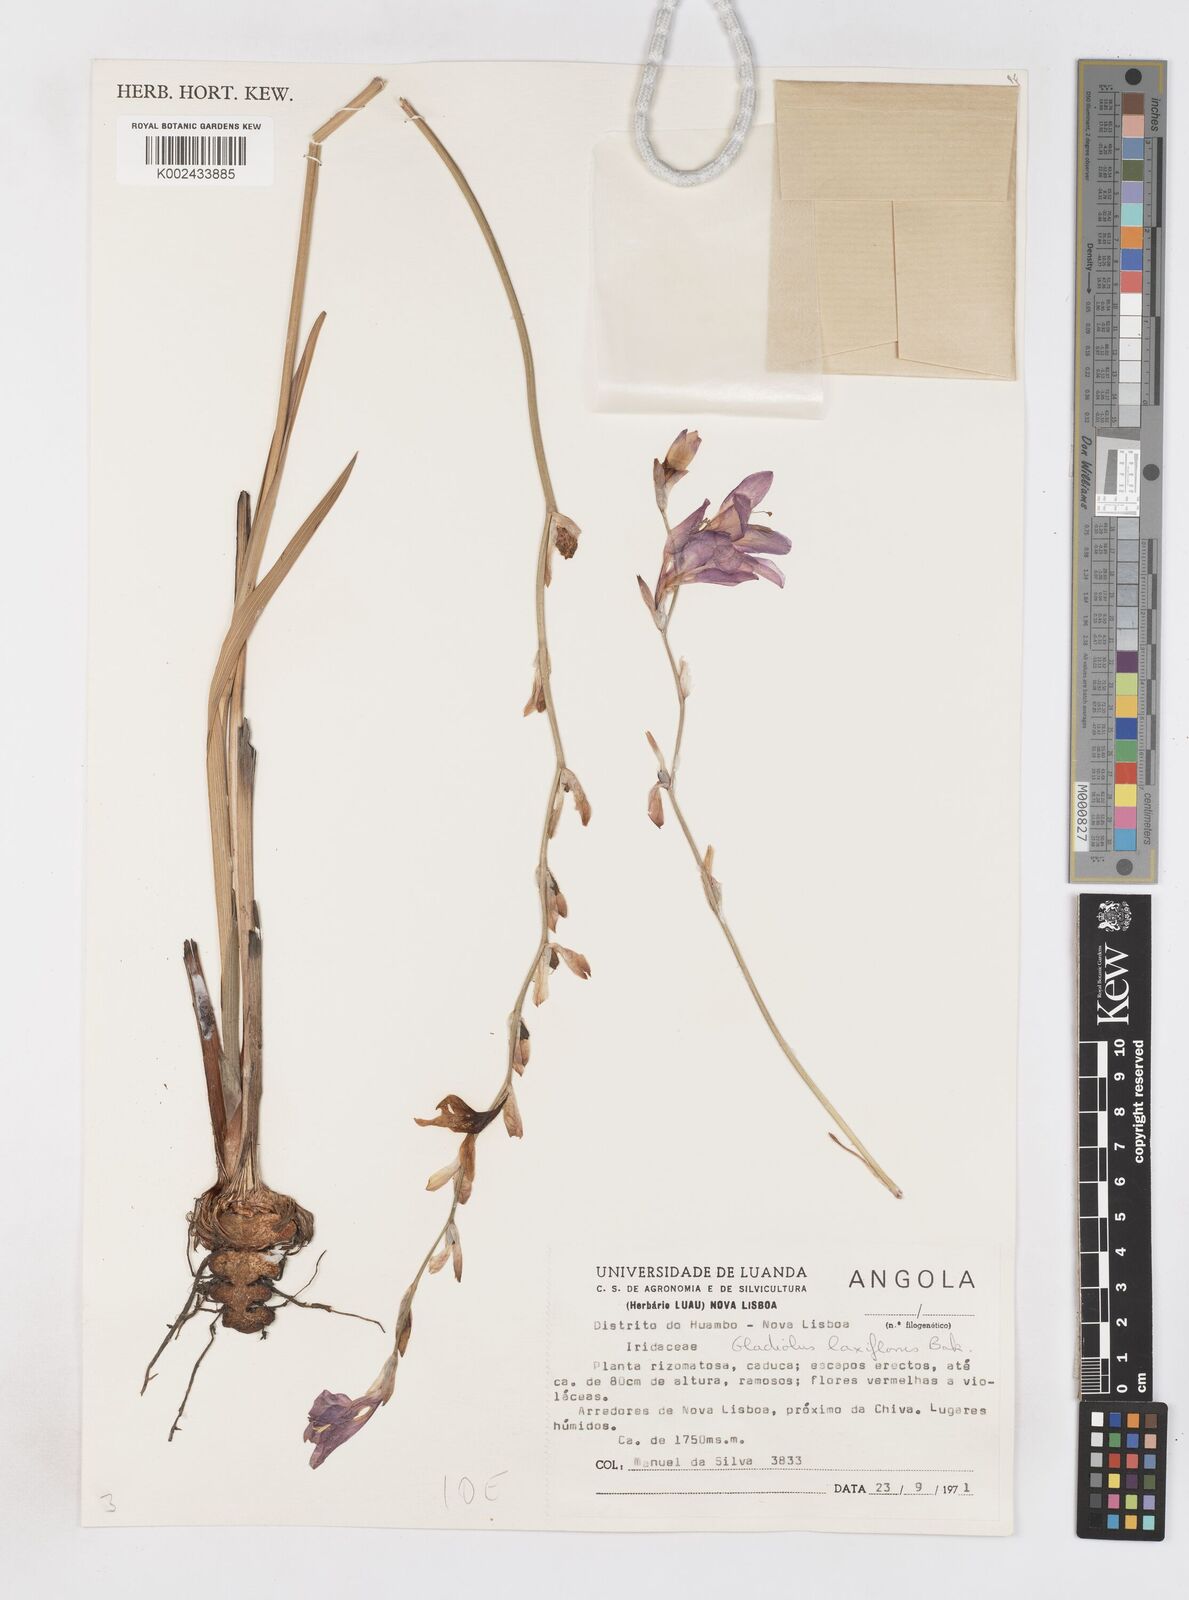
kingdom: Plantae
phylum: Tracheophyta
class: Liliopsida
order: Asparagales
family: Iridaceae
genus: Gladiolus
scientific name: Gladiolus laxiflorus
